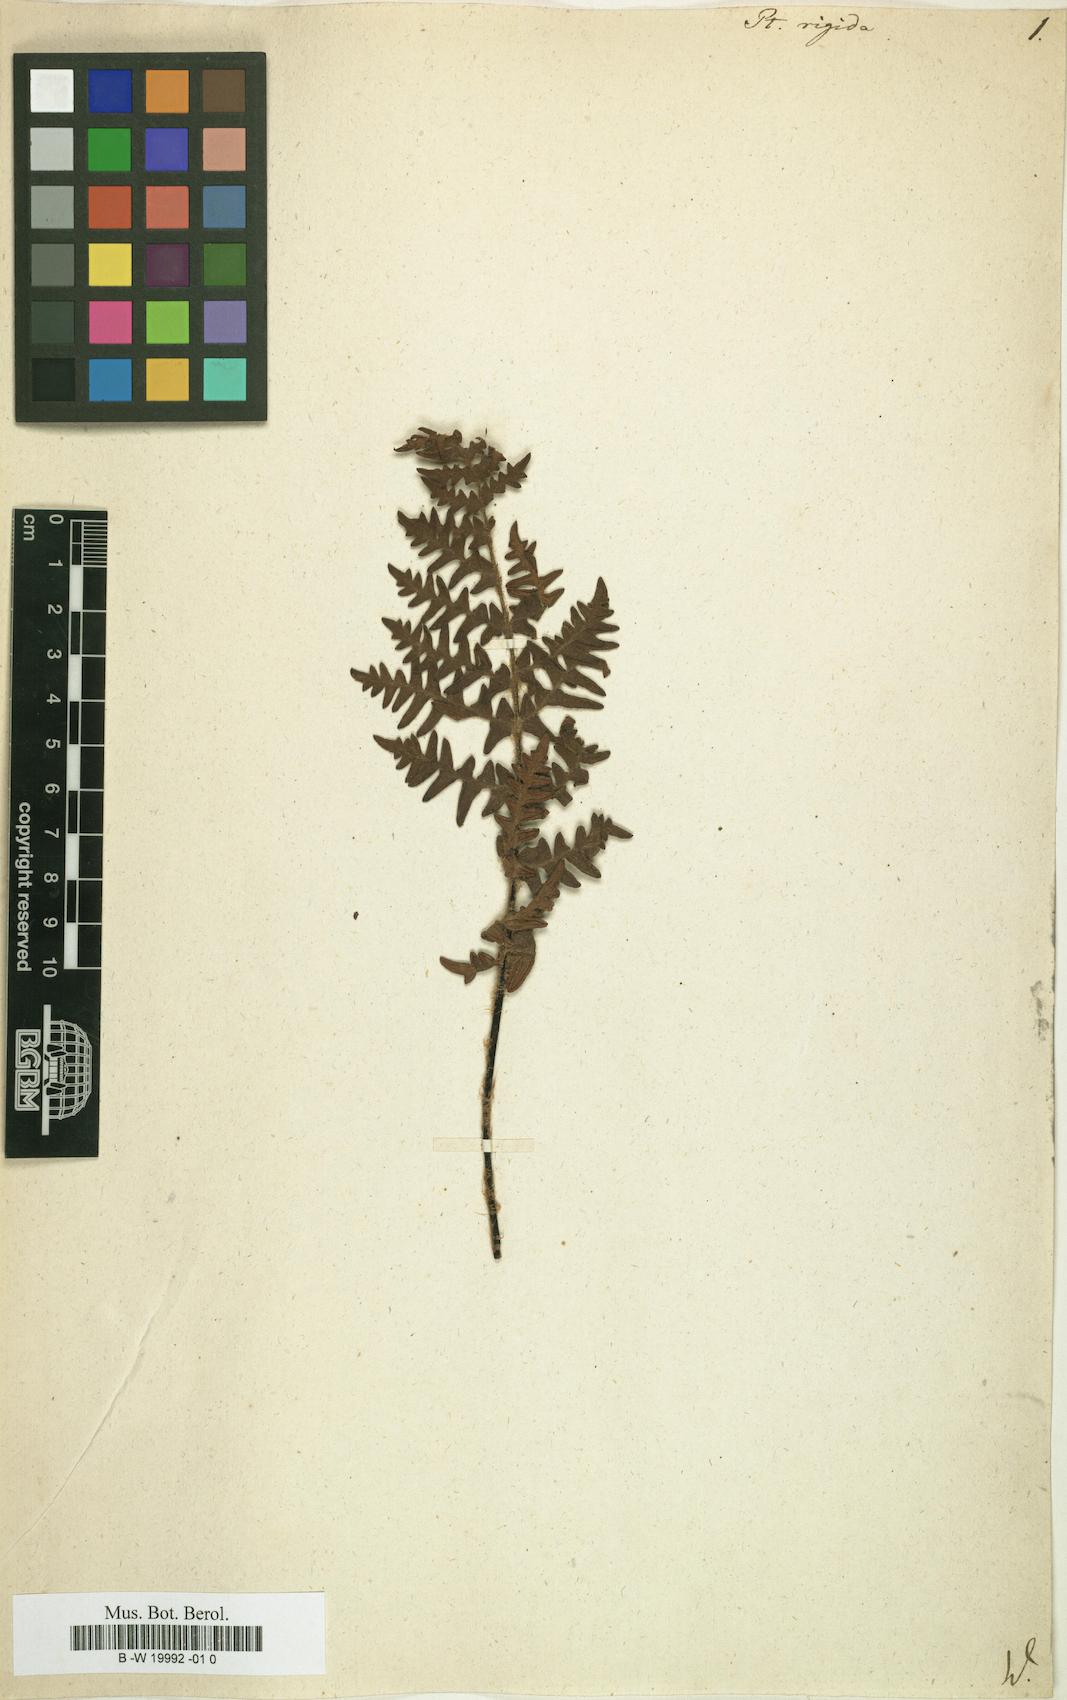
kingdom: Plantae
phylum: Tracheophyta
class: Polypodiopsida
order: Polypodiales
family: Pteridaceae
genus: Cheiloplecton
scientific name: Cheiloplecton rigidum
